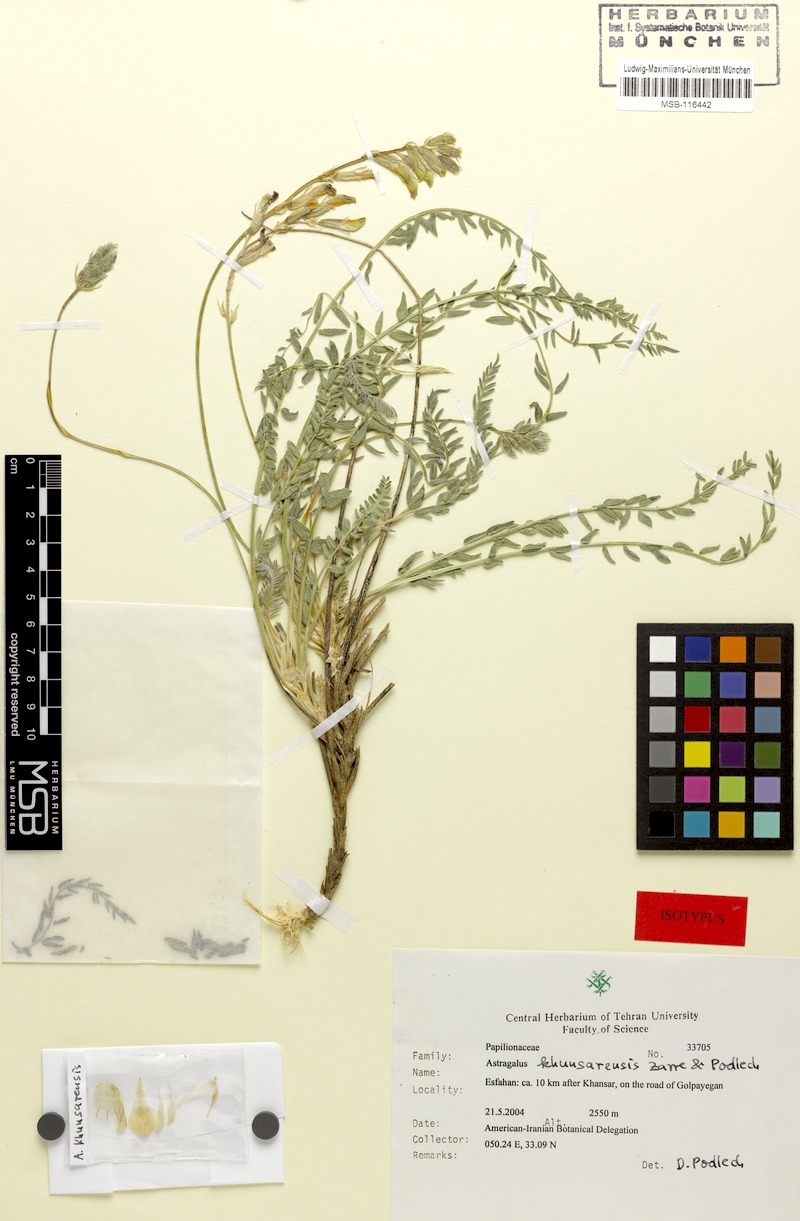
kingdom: Plantae
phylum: Tracheophyta
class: Magnoliopsida
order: Fabales
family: Fabaceae
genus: Astragalus
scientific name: Astragalus khunsarensis
